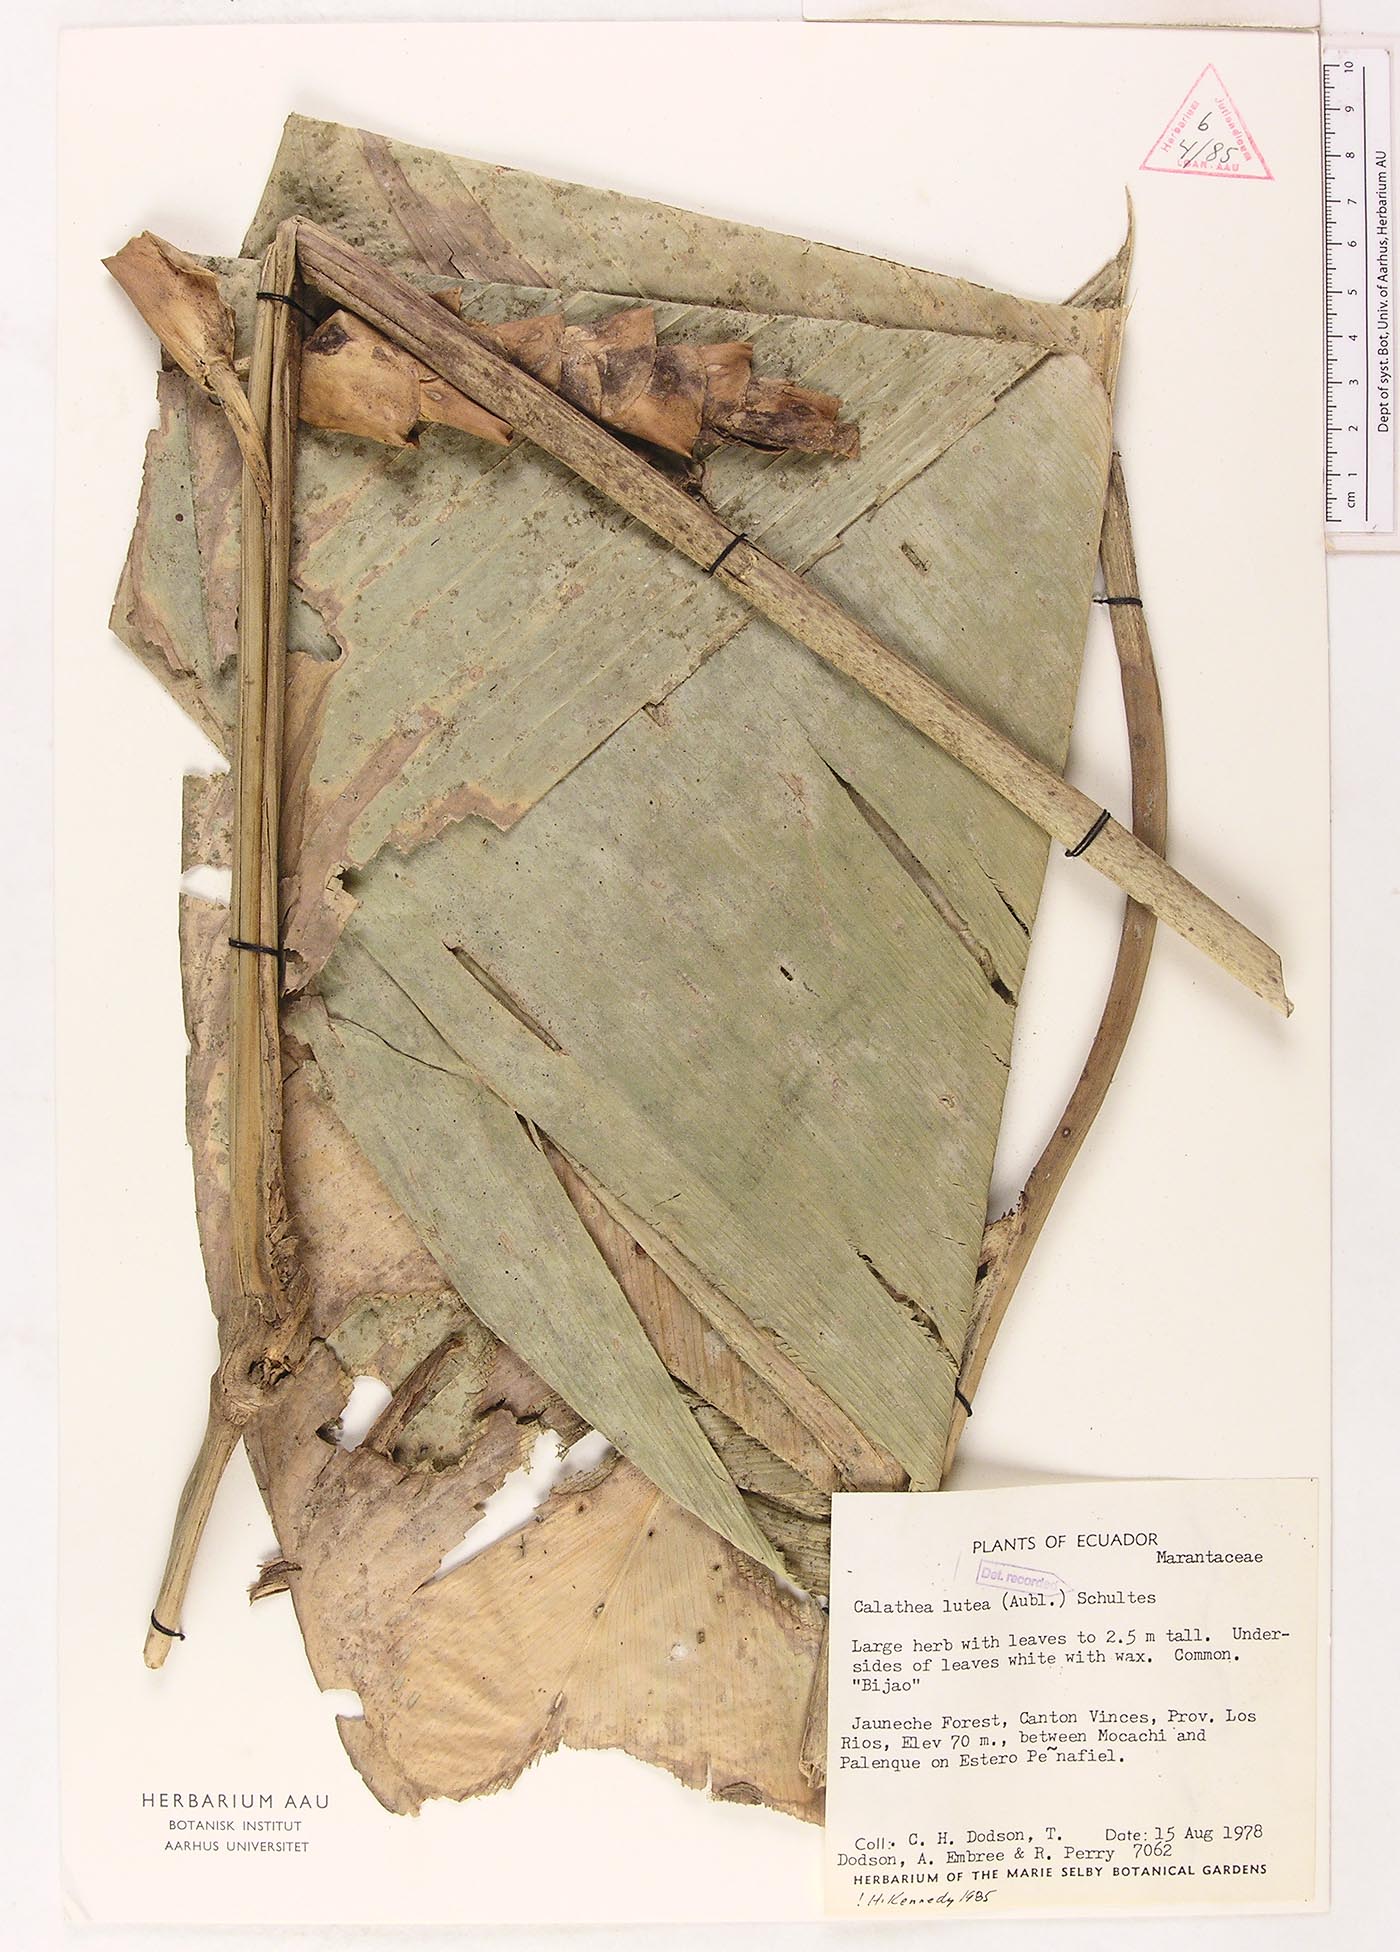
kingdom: Plantae
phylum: Tracheophyta
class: Liliopsida
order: Zingiberales
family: Marantaceae
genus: Calathea
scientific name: Calathea lutea
